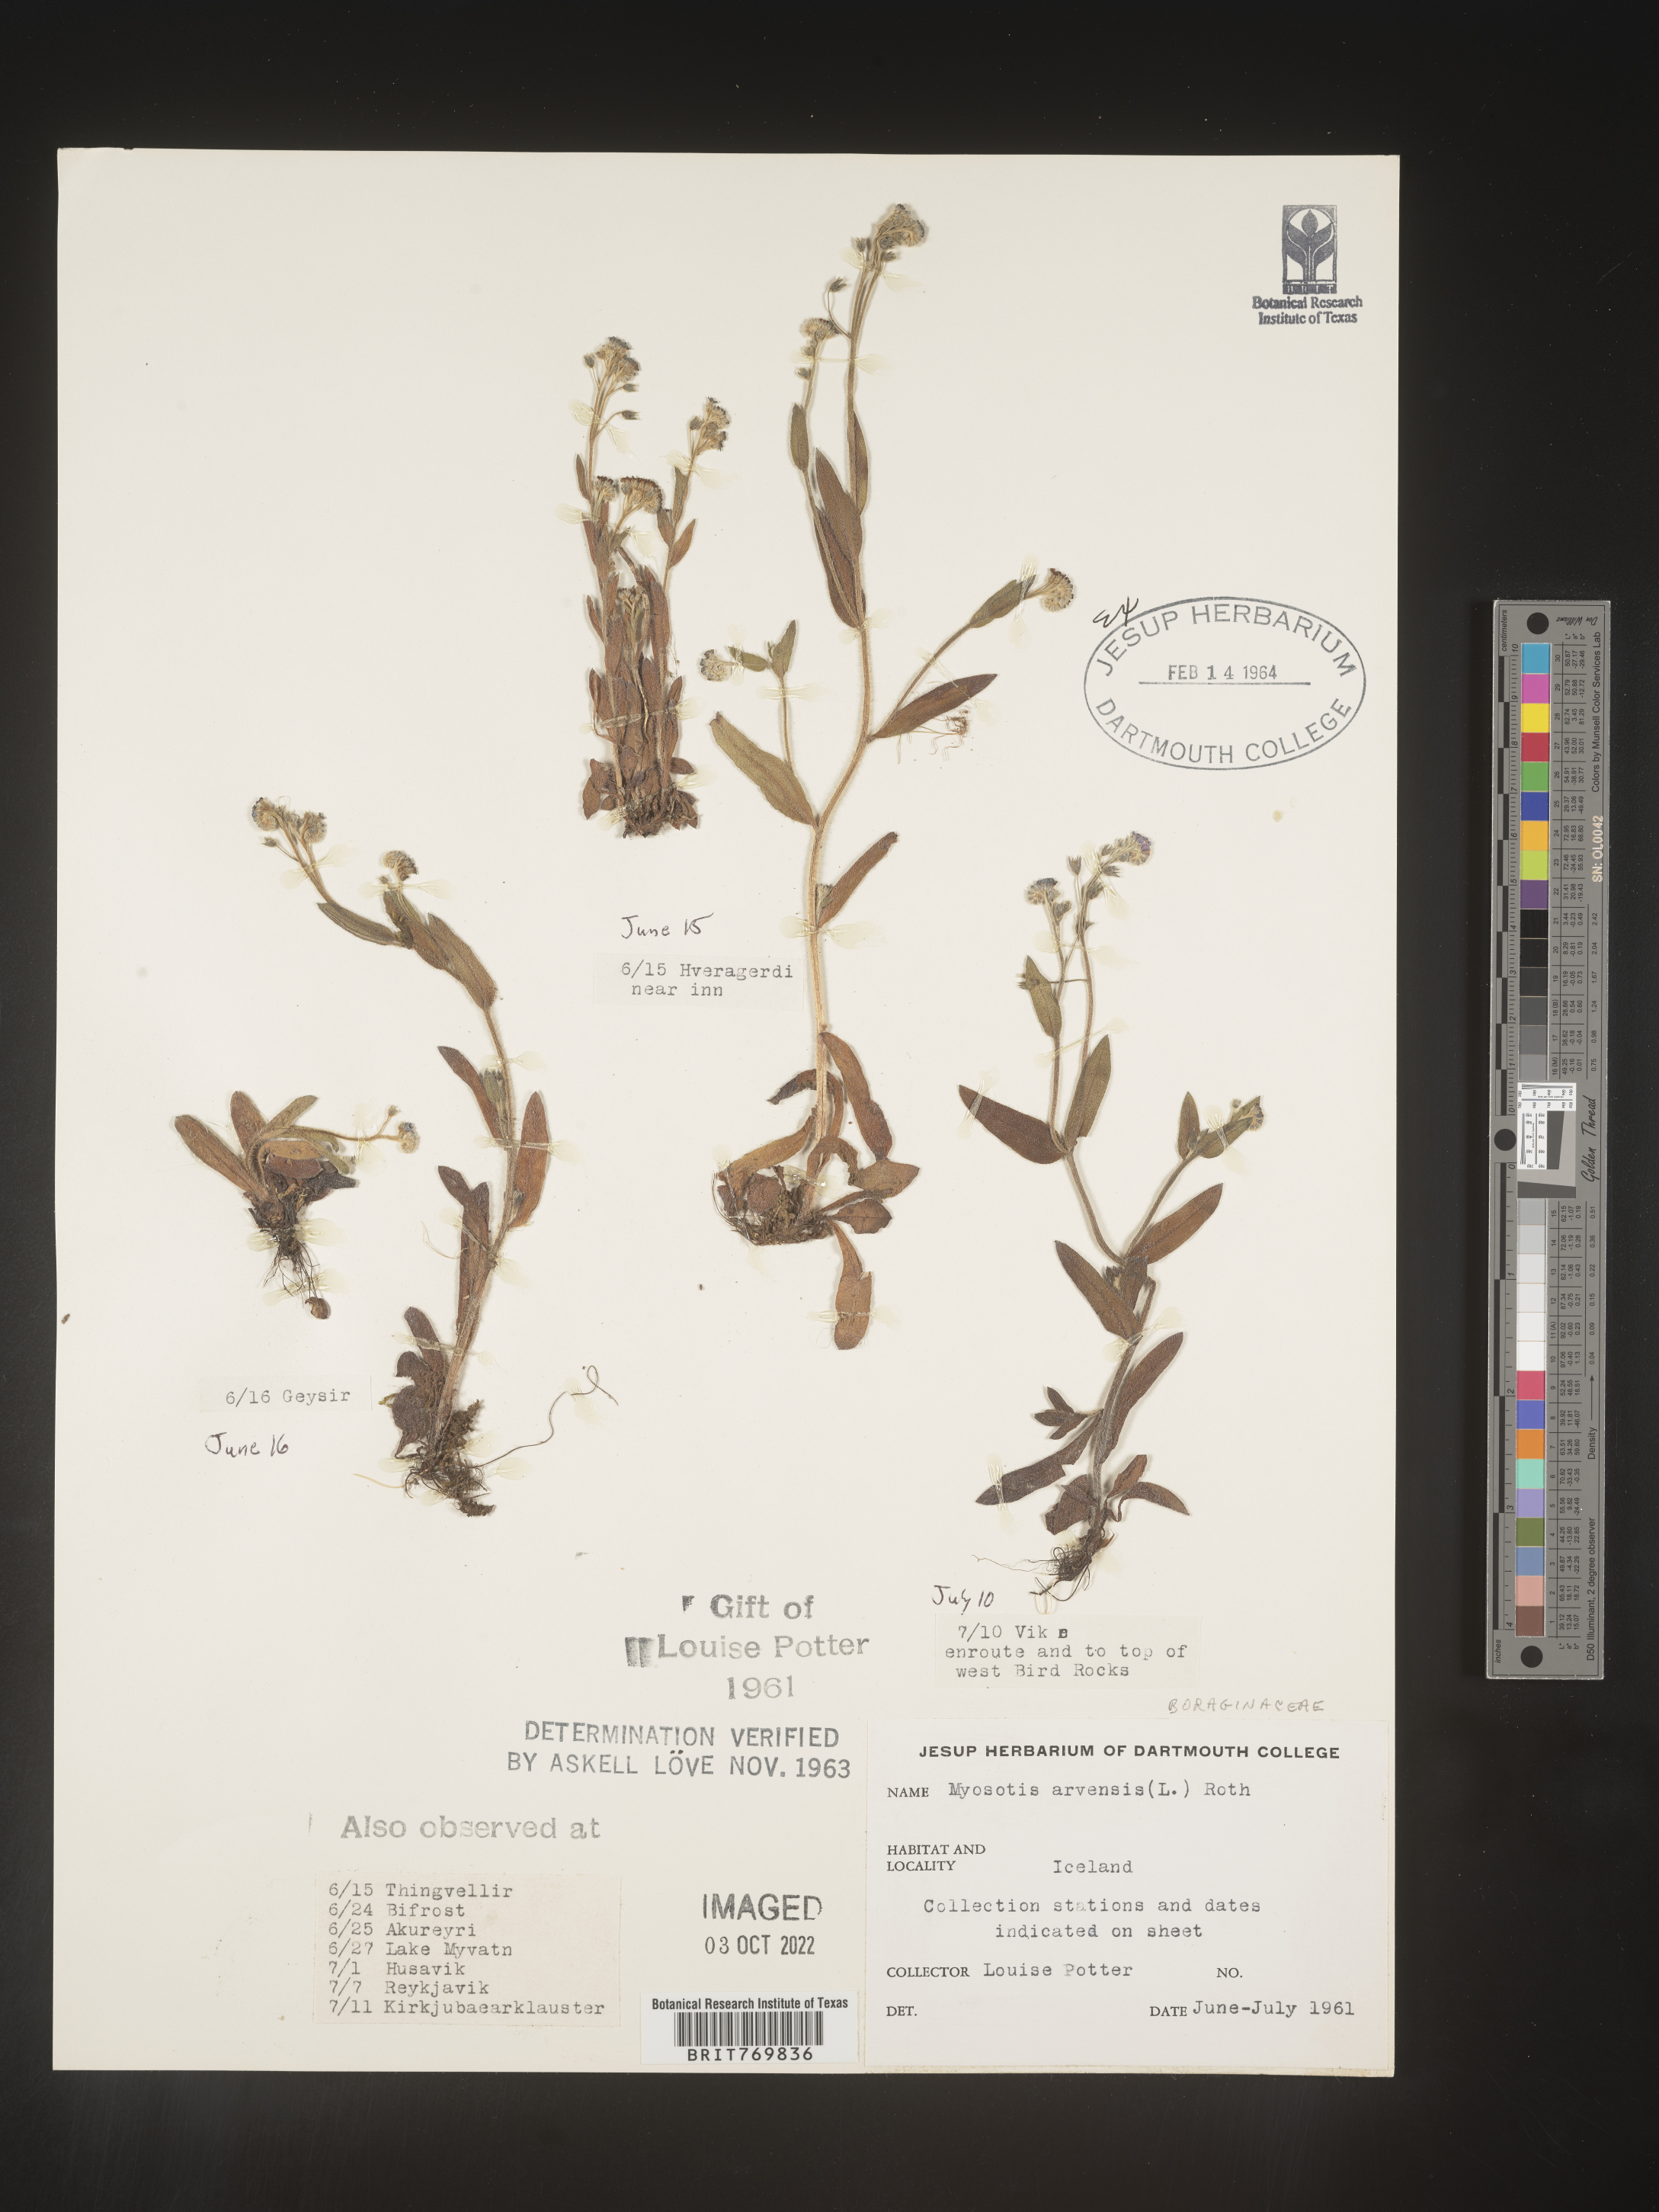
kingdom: Plantae
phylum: Tracheophyta
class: Magnoliopsida
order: Boraginales
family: Boraginaceae
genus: Myosotis
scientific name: Myosotis
